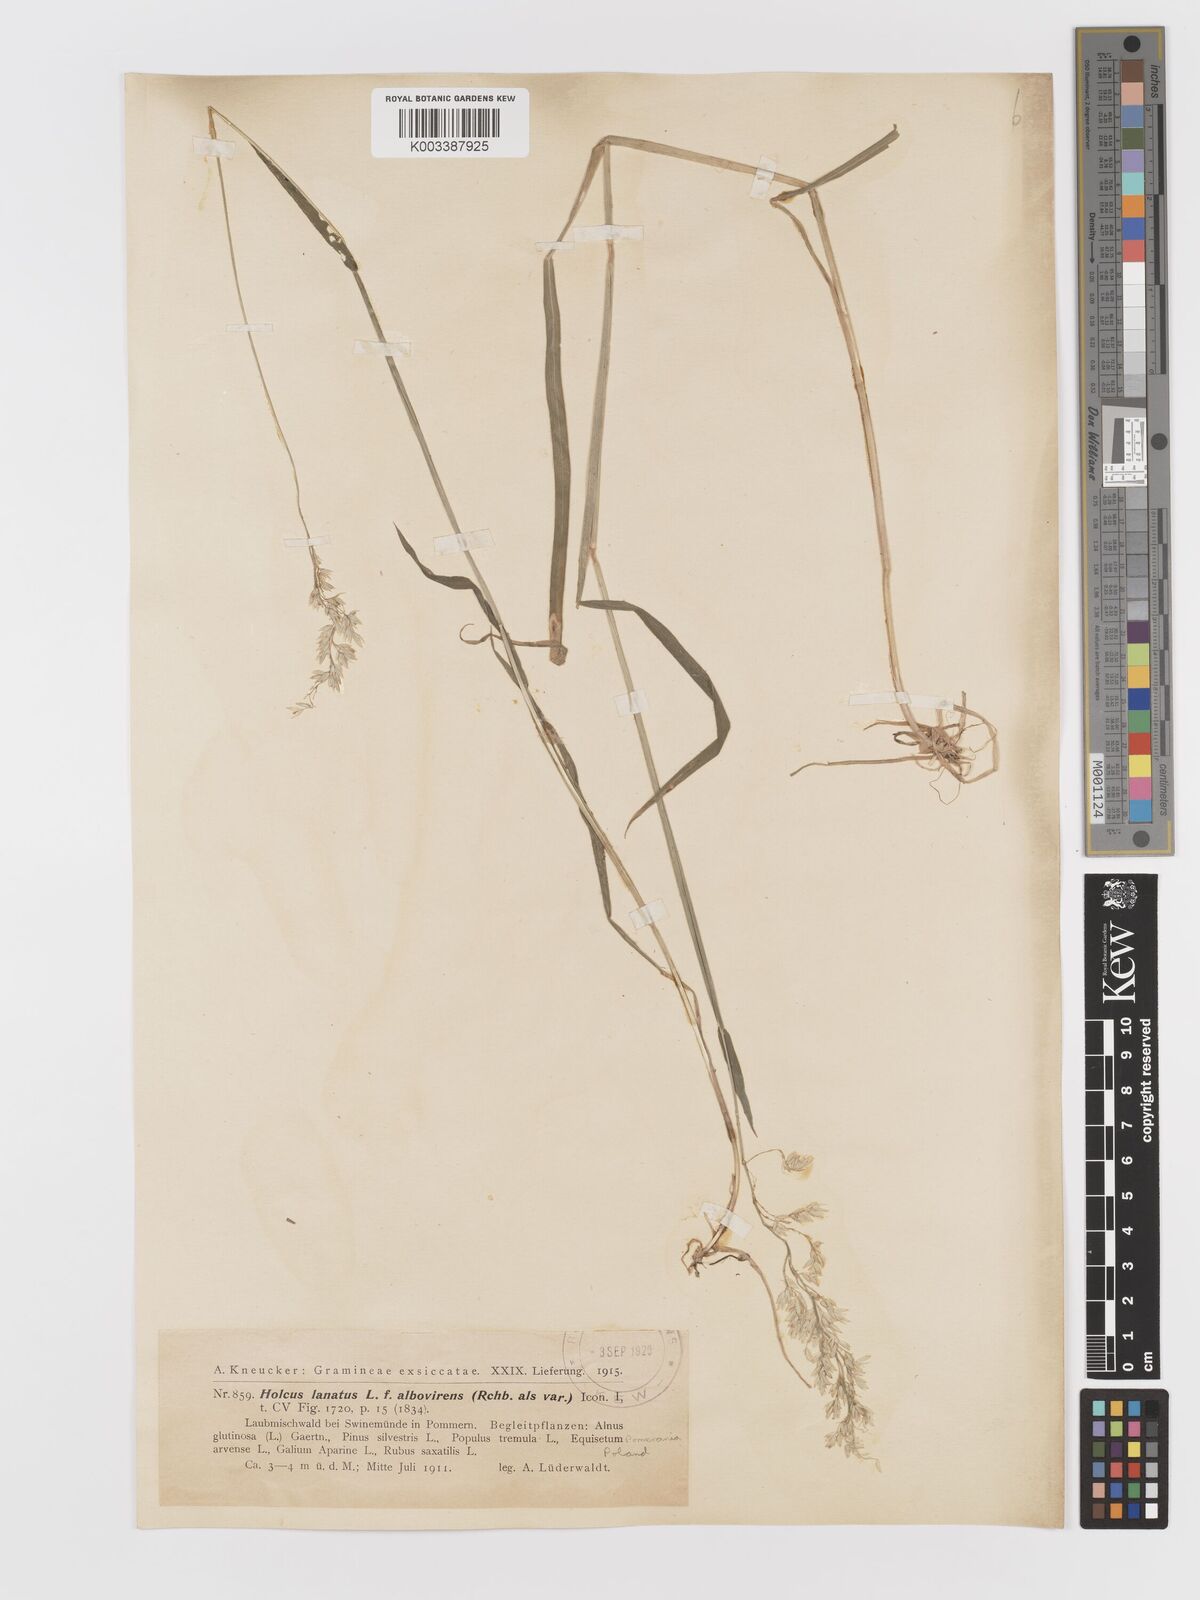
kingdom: Plantae
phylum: Tracheophyta
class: Liliopsida
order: Poales
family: Poaceae
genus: Holcus
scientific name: Holcus lanatus
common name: Yorkshire-fog
